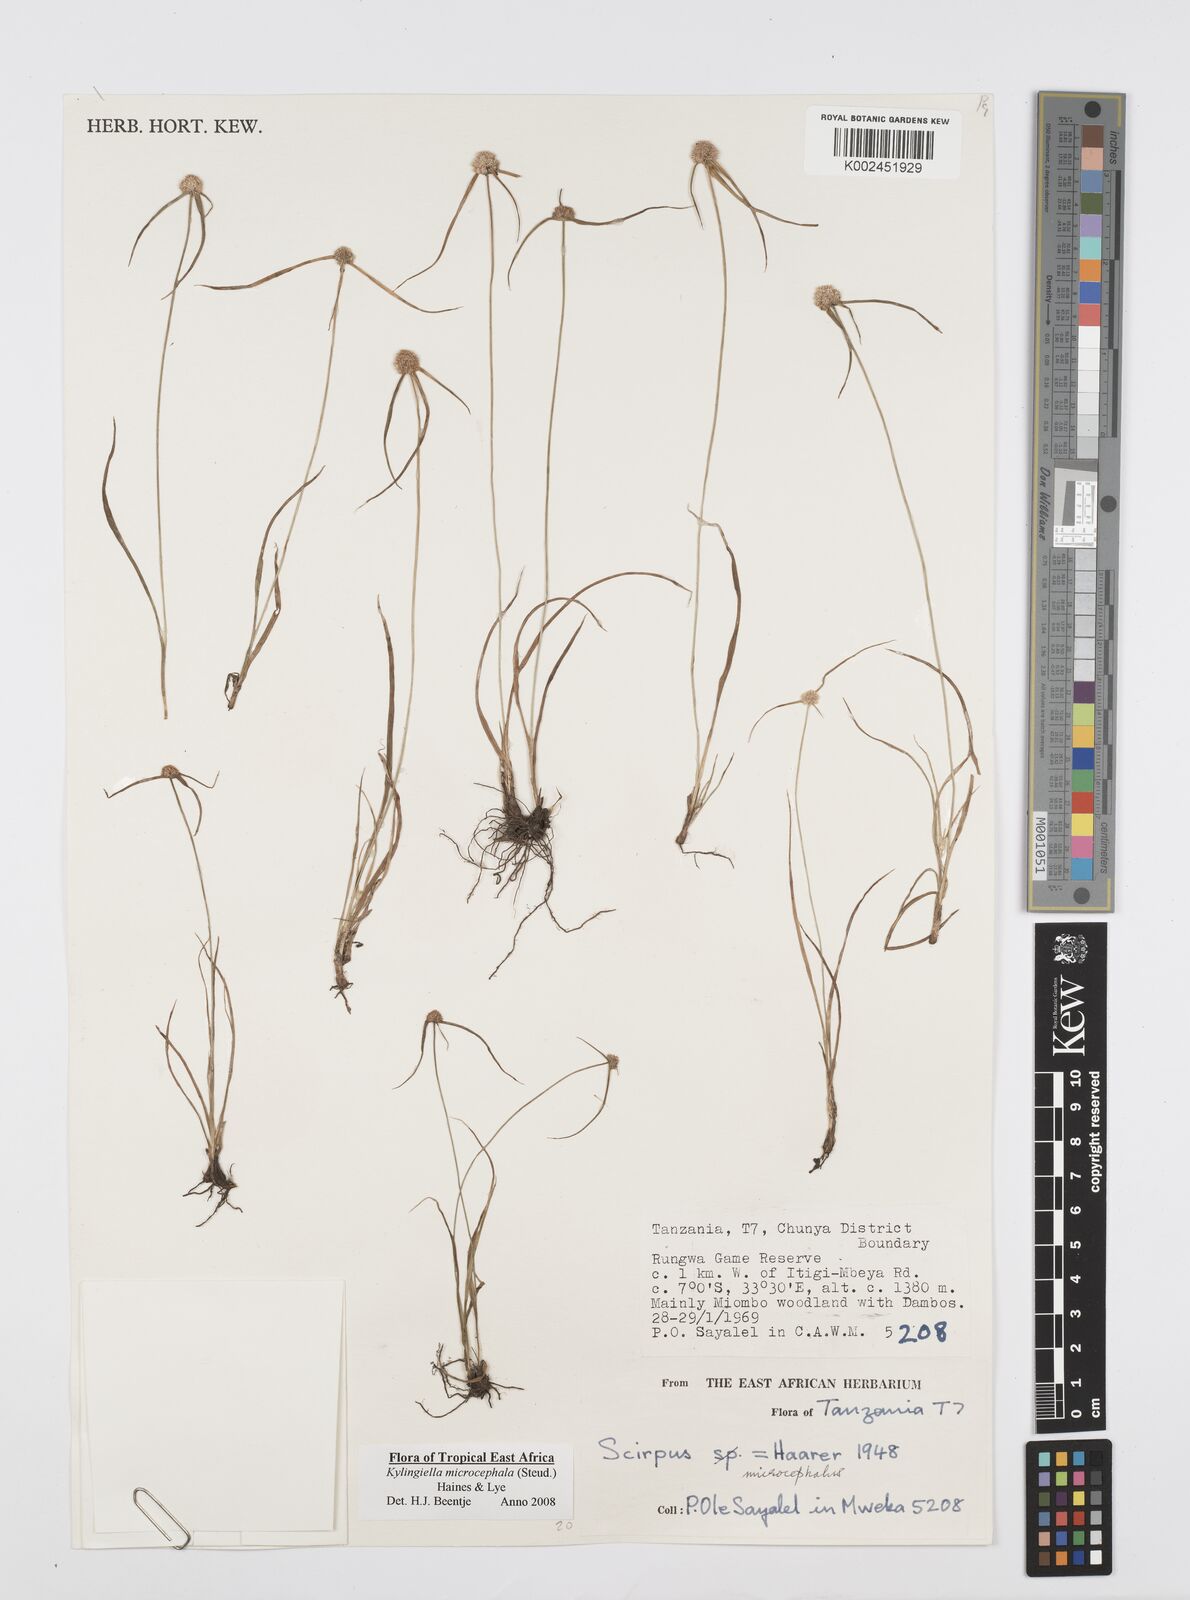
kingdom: Plantae
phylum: Tracheophyta
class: Liliopsida
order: Poales
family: Cyperaceae
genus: Cyperus
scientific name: Cyperus microcephalus
